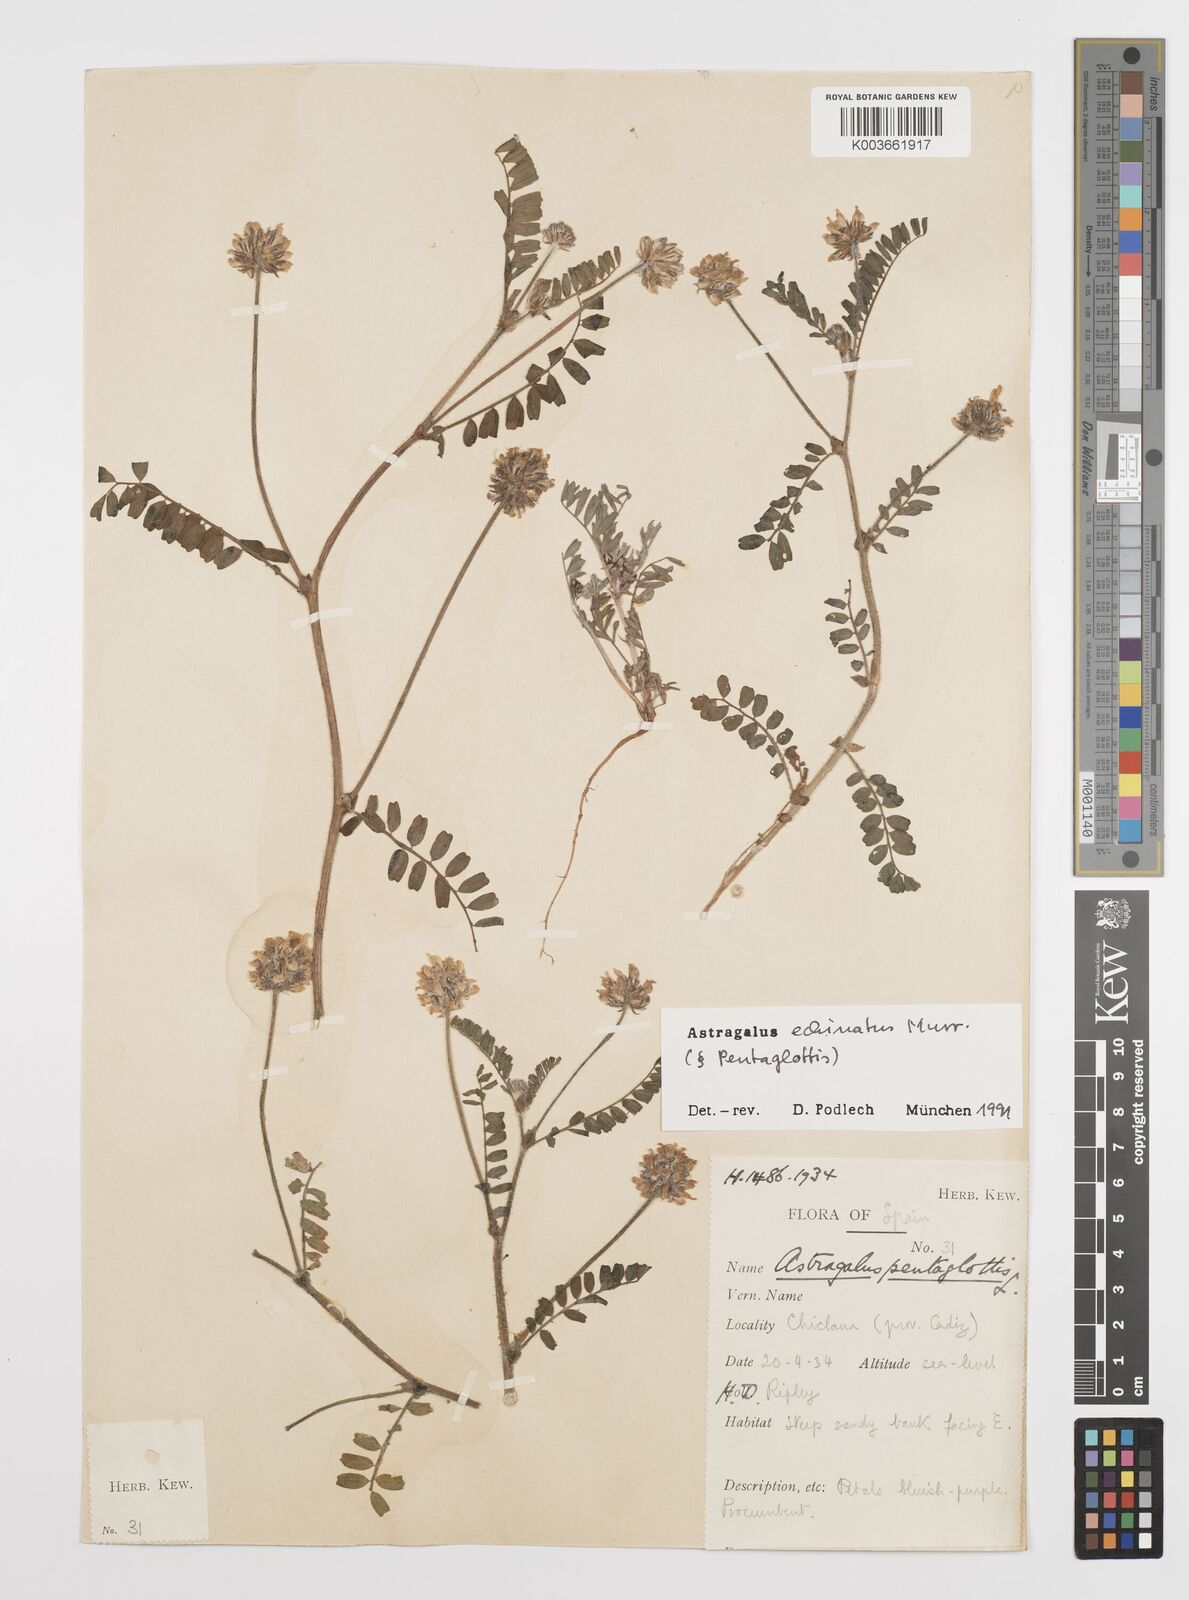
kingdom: Plantae
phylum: Tracheophyta
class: Magnoliopsida
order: Fabales
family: Fabaceae
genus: Astragalus
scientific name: Astragalus echinatus
